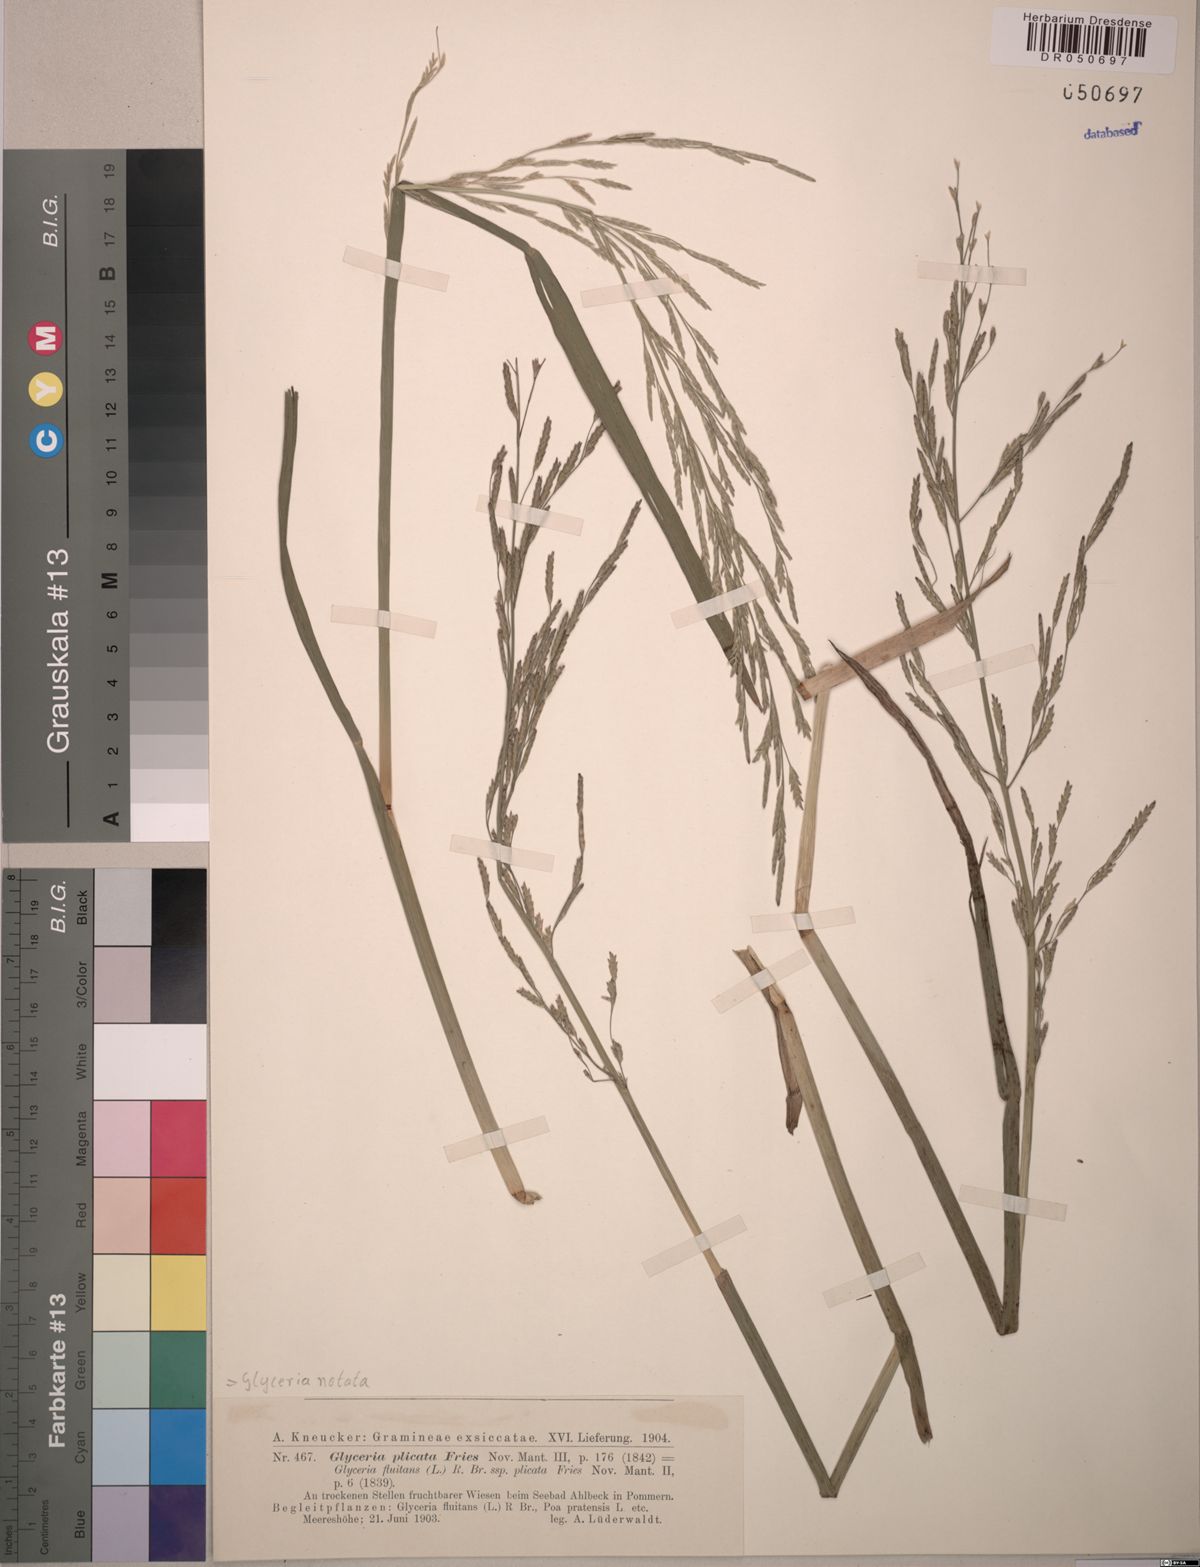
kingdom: Plantae
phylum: Tracheophyta
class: Liliopsida
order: Poales
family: Poaceae
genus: Glyceria
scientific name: Glyceria notata
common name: Plicate sweet-grass
